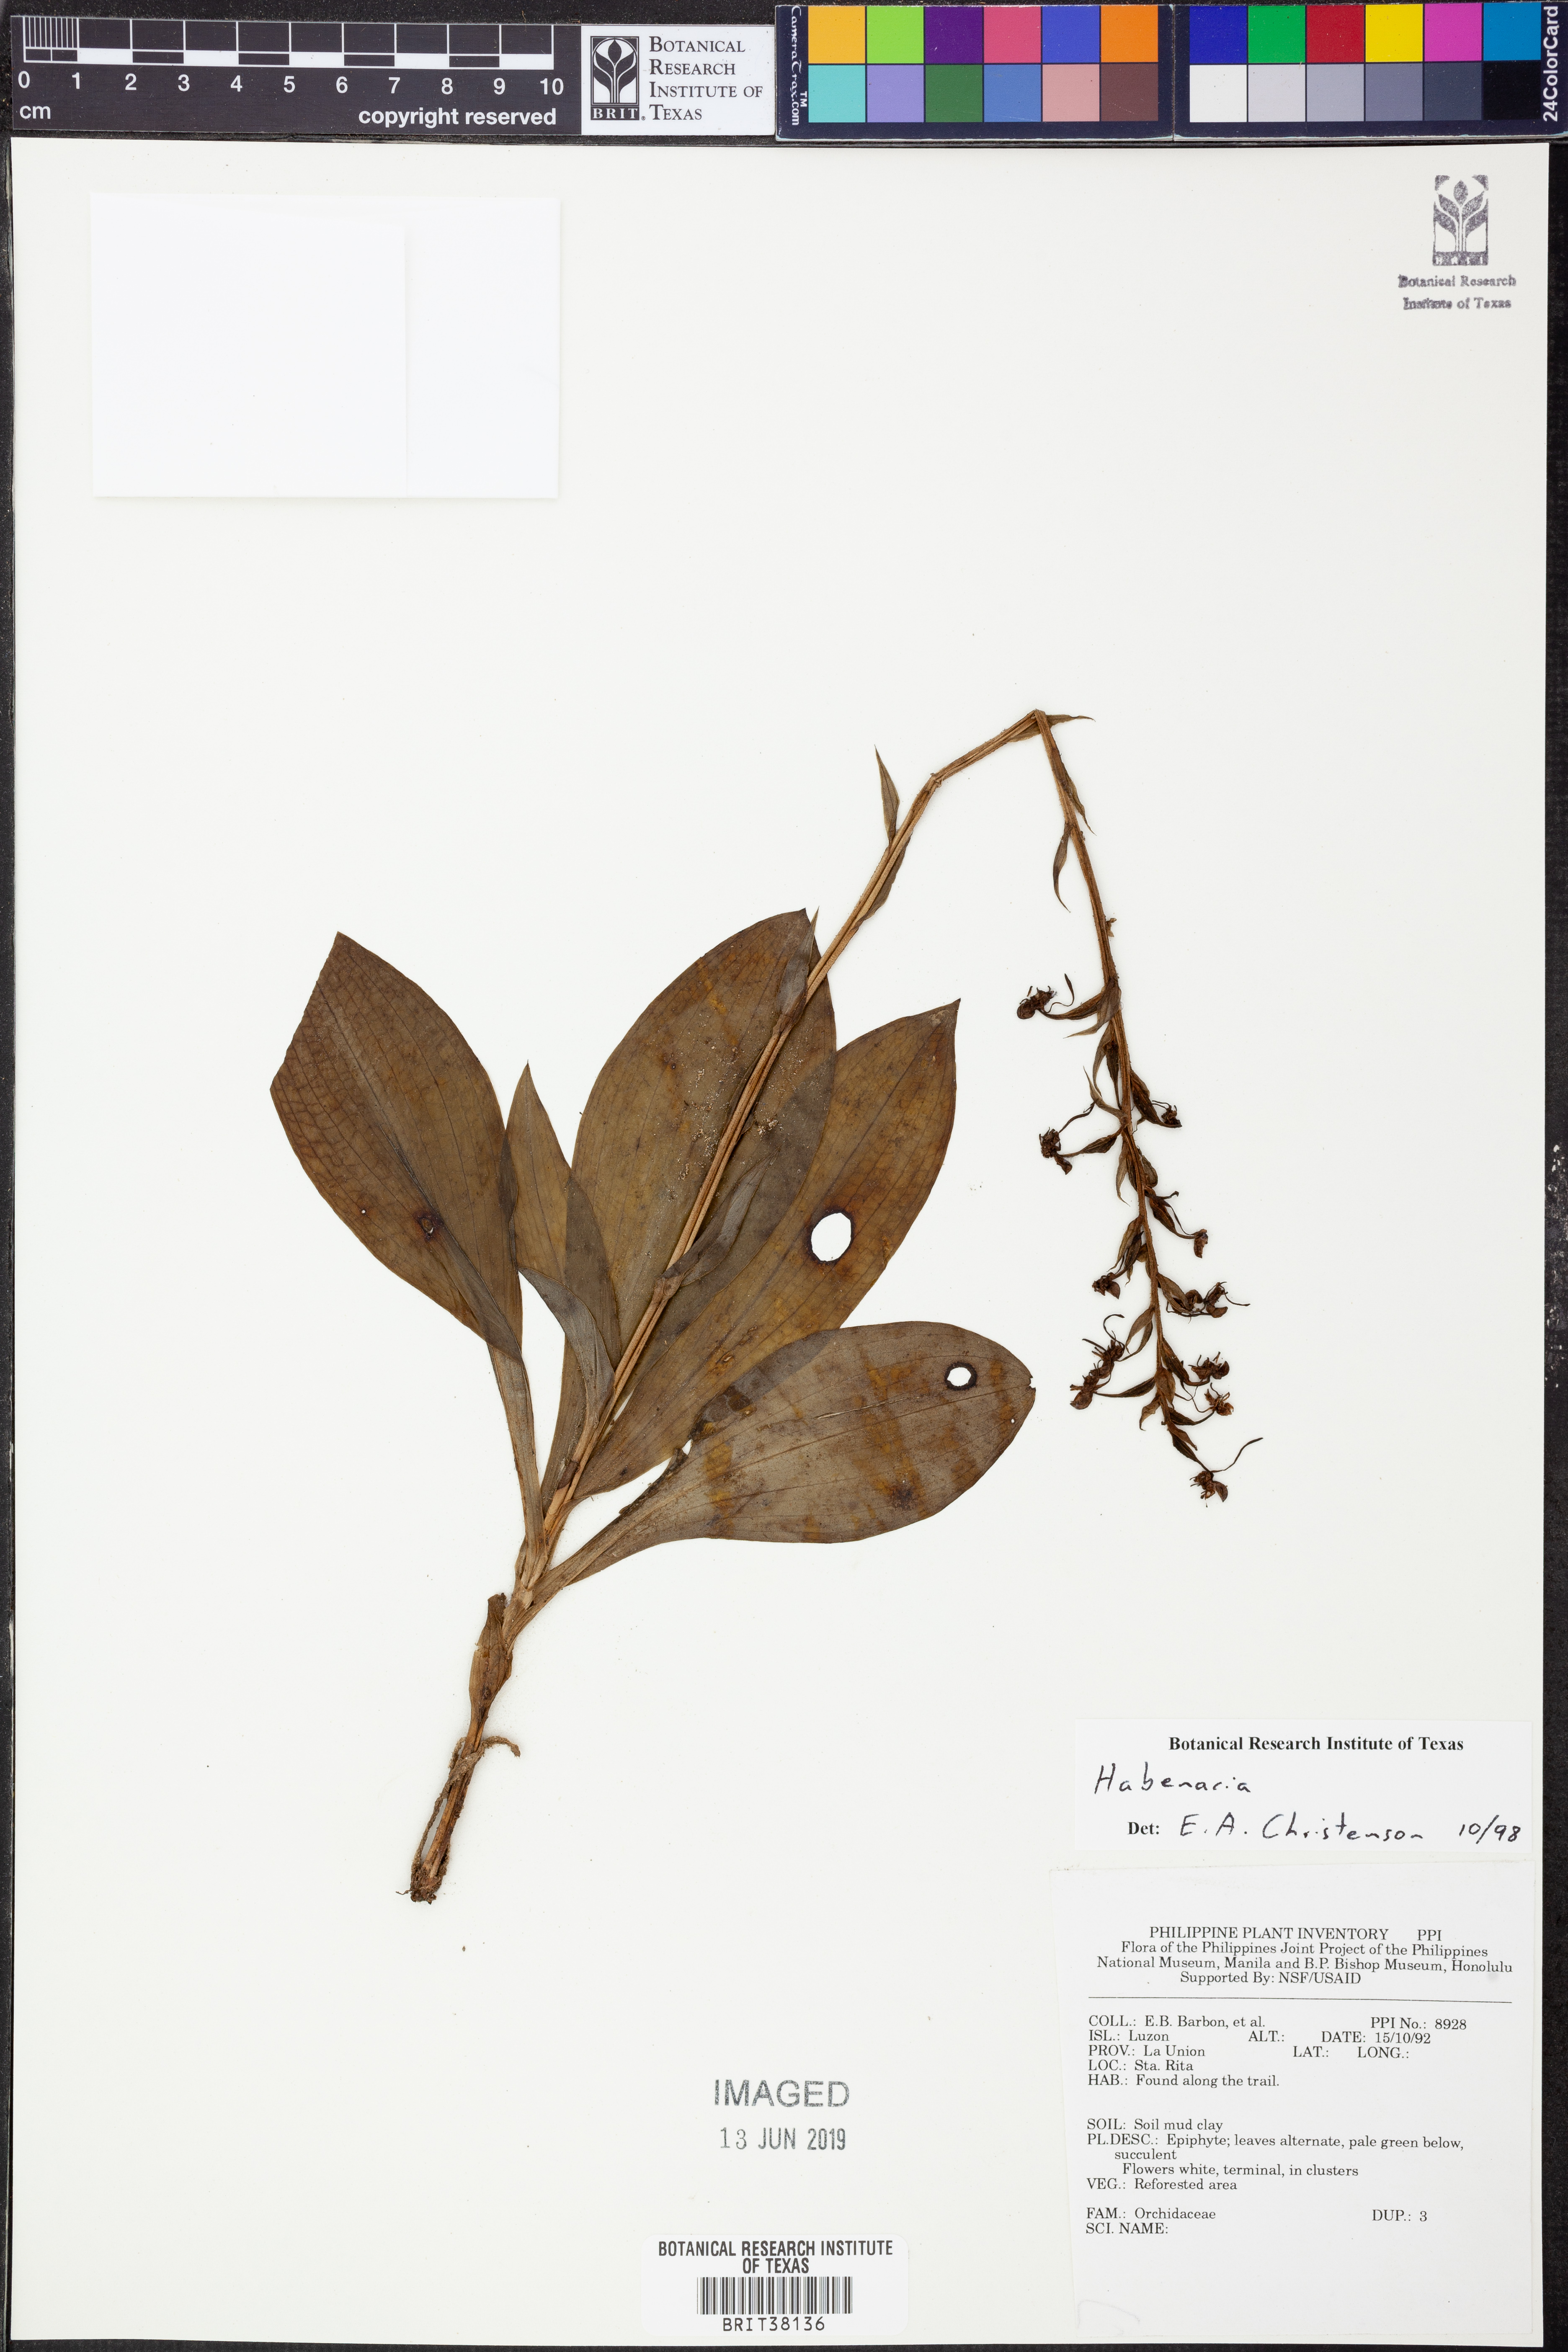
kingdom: Plantae
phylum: Tracheophyta
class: Liliopsida
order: Asparagales
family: Orchidaceae
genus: Habenaria
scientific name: Habenaria
